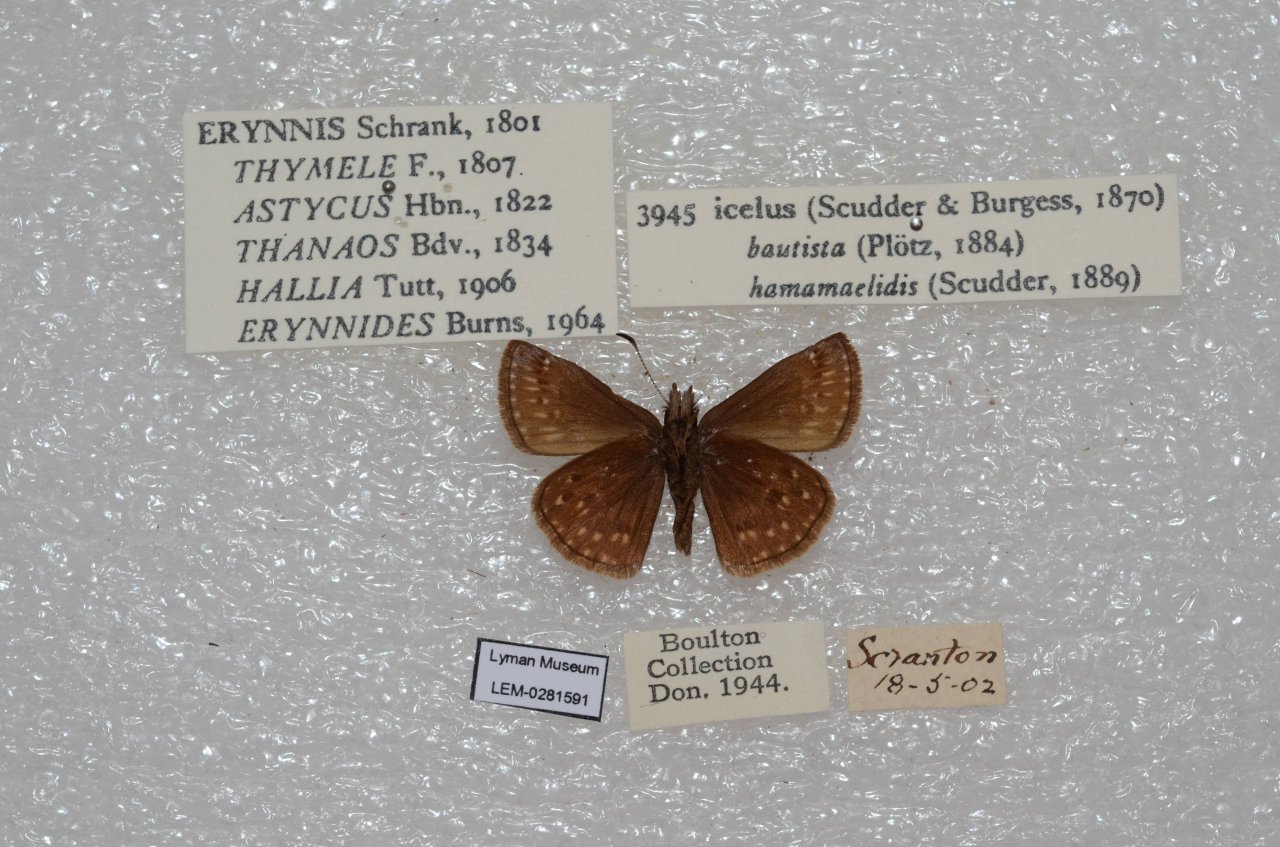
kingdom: Animalia
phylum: Arthropoda
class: Insecta
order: Lepidoptera
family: Hesperiidae
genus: Erynnis
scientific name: Erynnis icelus
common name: Dreamy Duskywing
